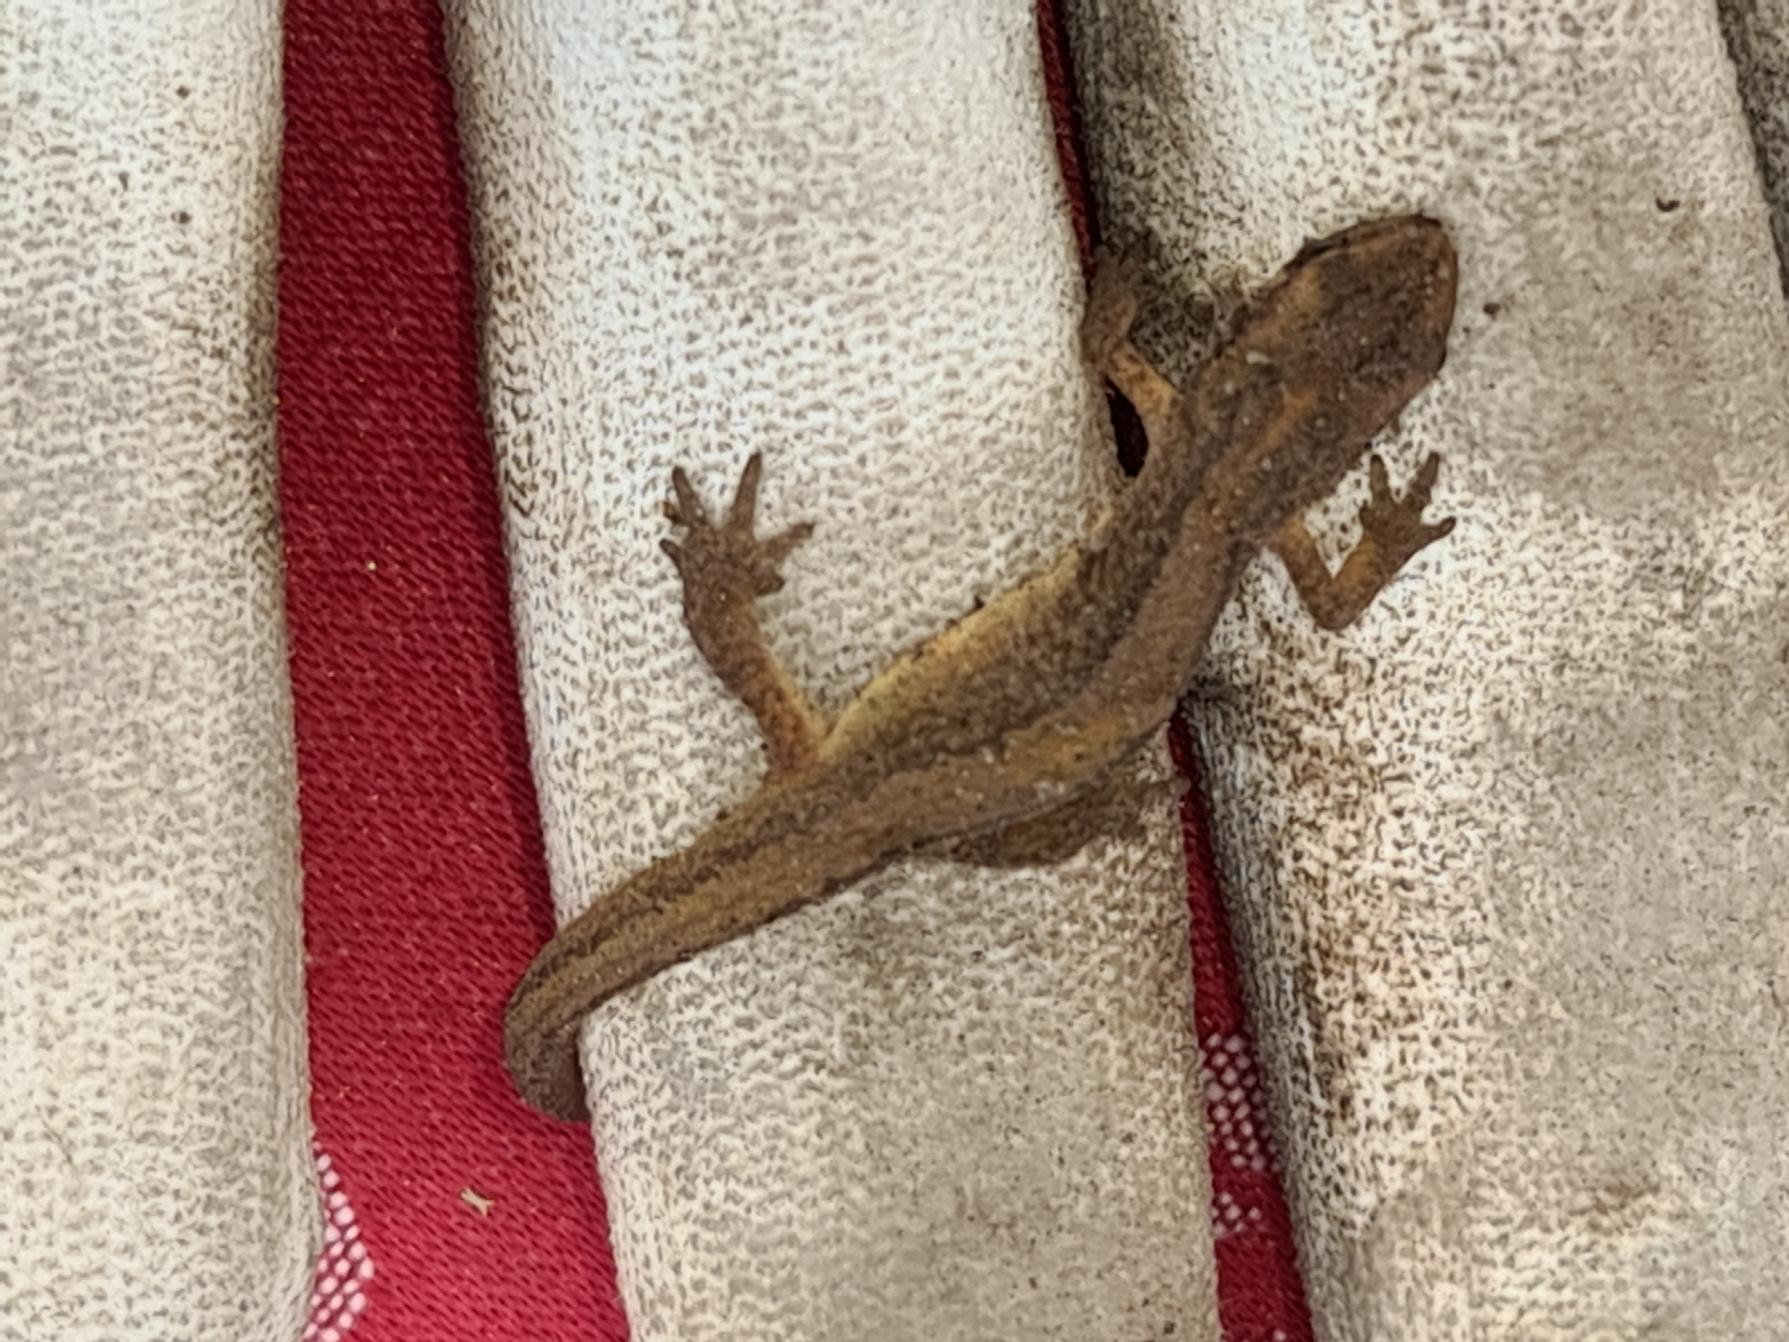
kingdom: Animalia
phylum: Chordata
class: Amphibia
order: Caudata
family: Salamandridae
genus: Lissotriton
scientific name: Lissotriton vulgaris
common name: Lille vandsalamander
